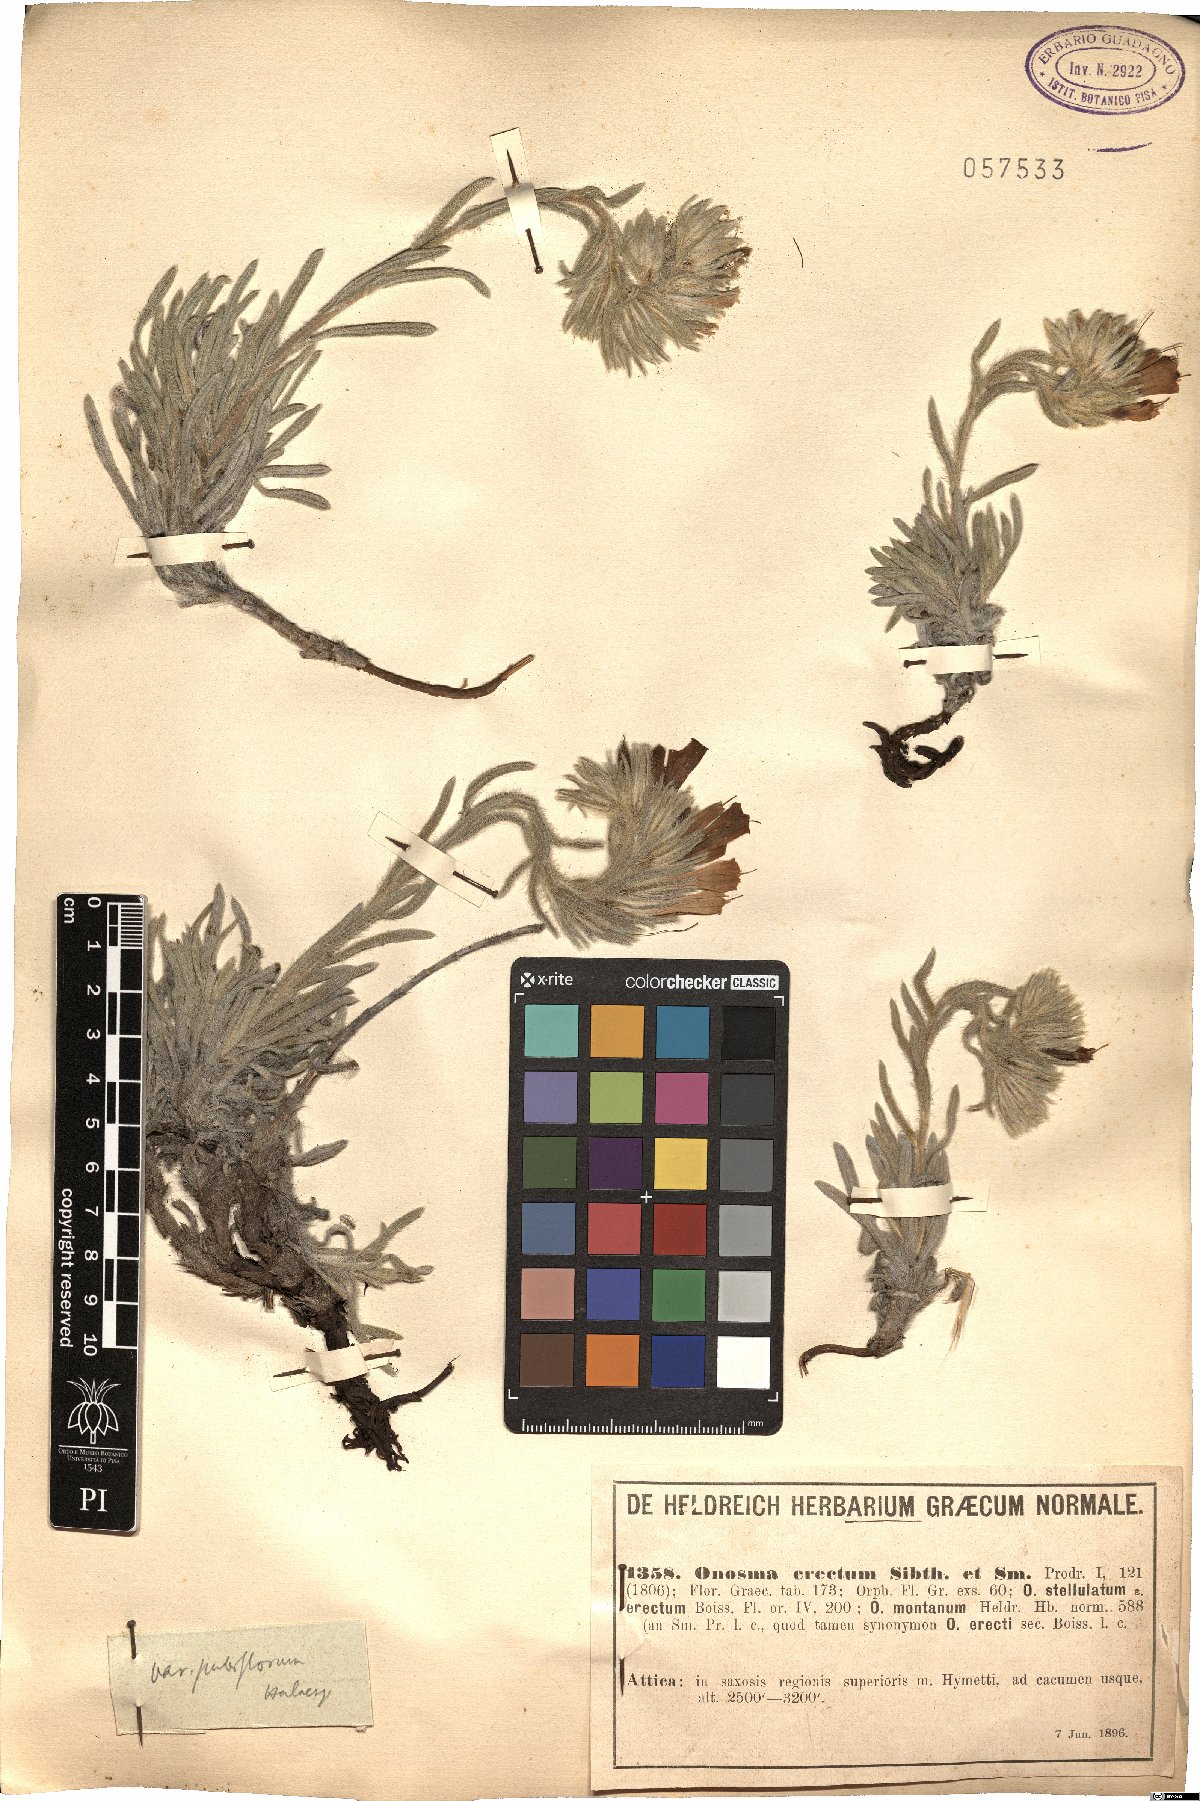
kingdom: Plantae
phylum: Tracheophyta
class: Magnoliopsida
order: Boraginales
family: Boraginaceae
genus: Onosma
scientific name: Onosma erecta
